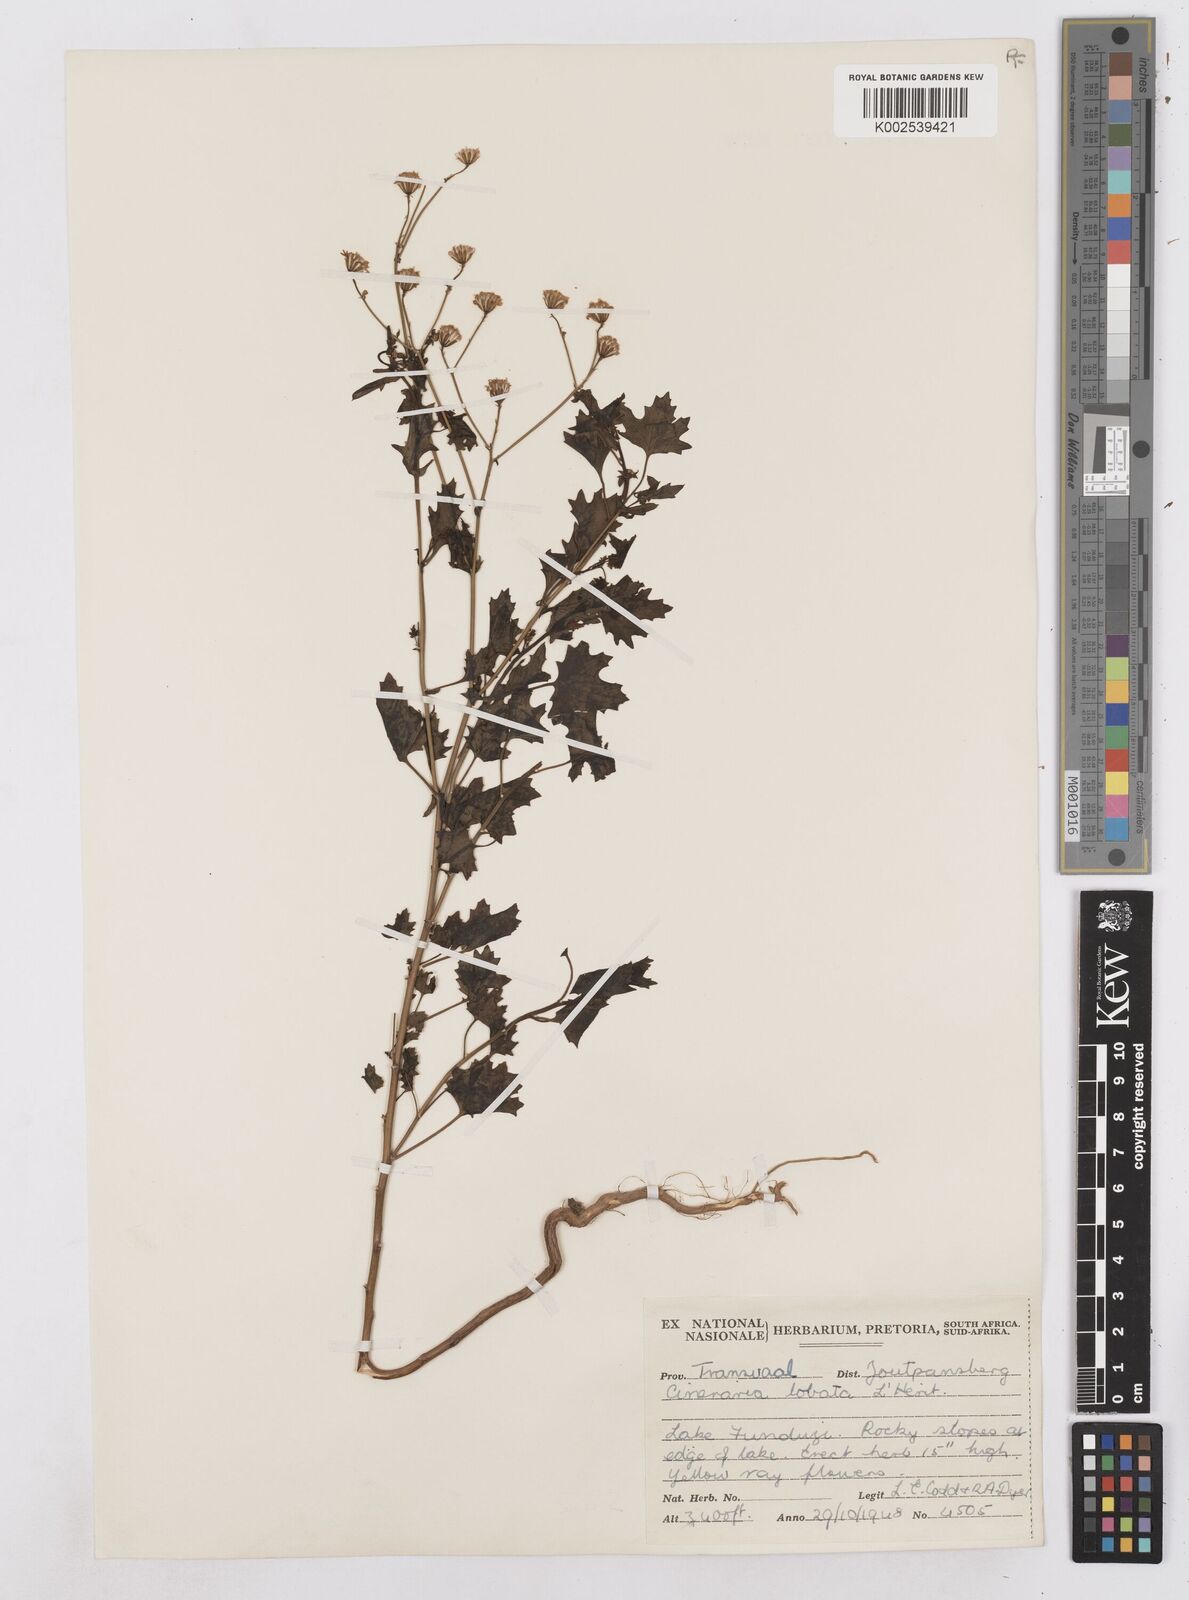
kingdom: Plantae
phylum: Tracheophyta
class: Magnoliopsida
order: Asterales
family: Asteraceae
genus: Cineraria
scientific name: Cineraria
